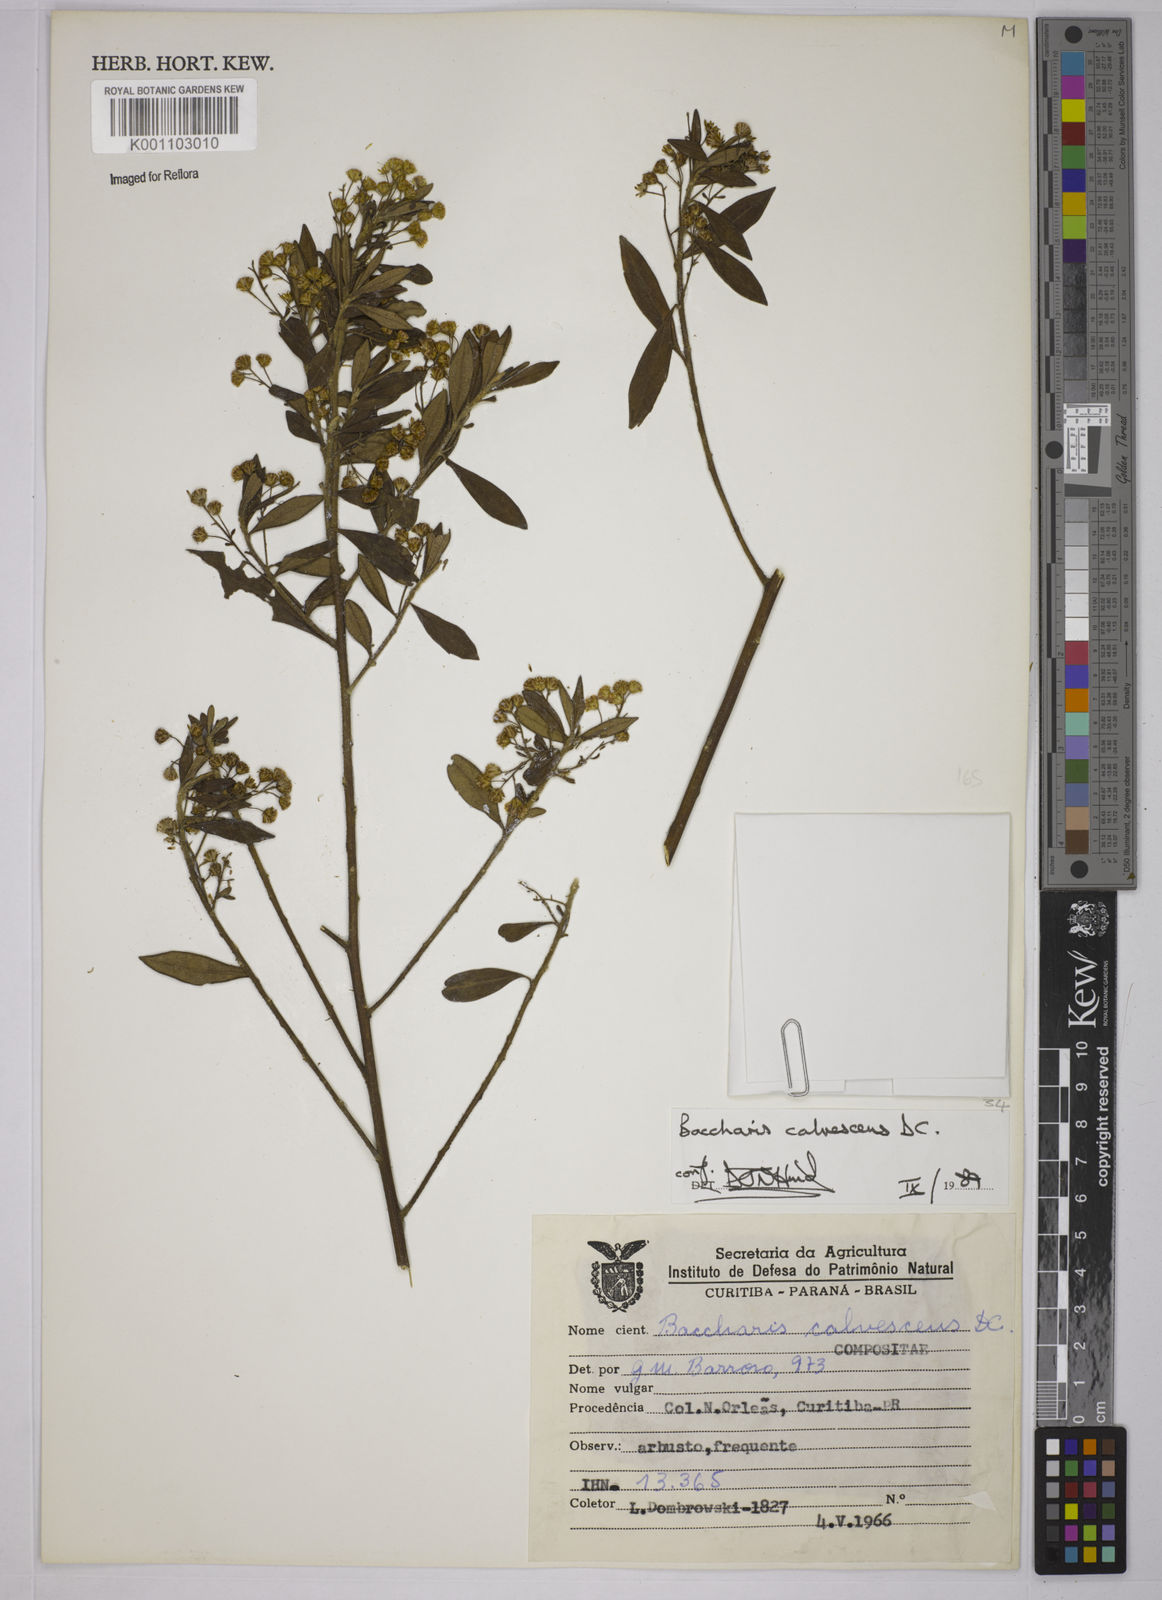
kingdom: Plantae
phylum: Tracheophyta
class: Magnoliopsida
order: Asterales
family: Asteraceae
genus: Baccharis
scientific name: Baccharis calvescens
